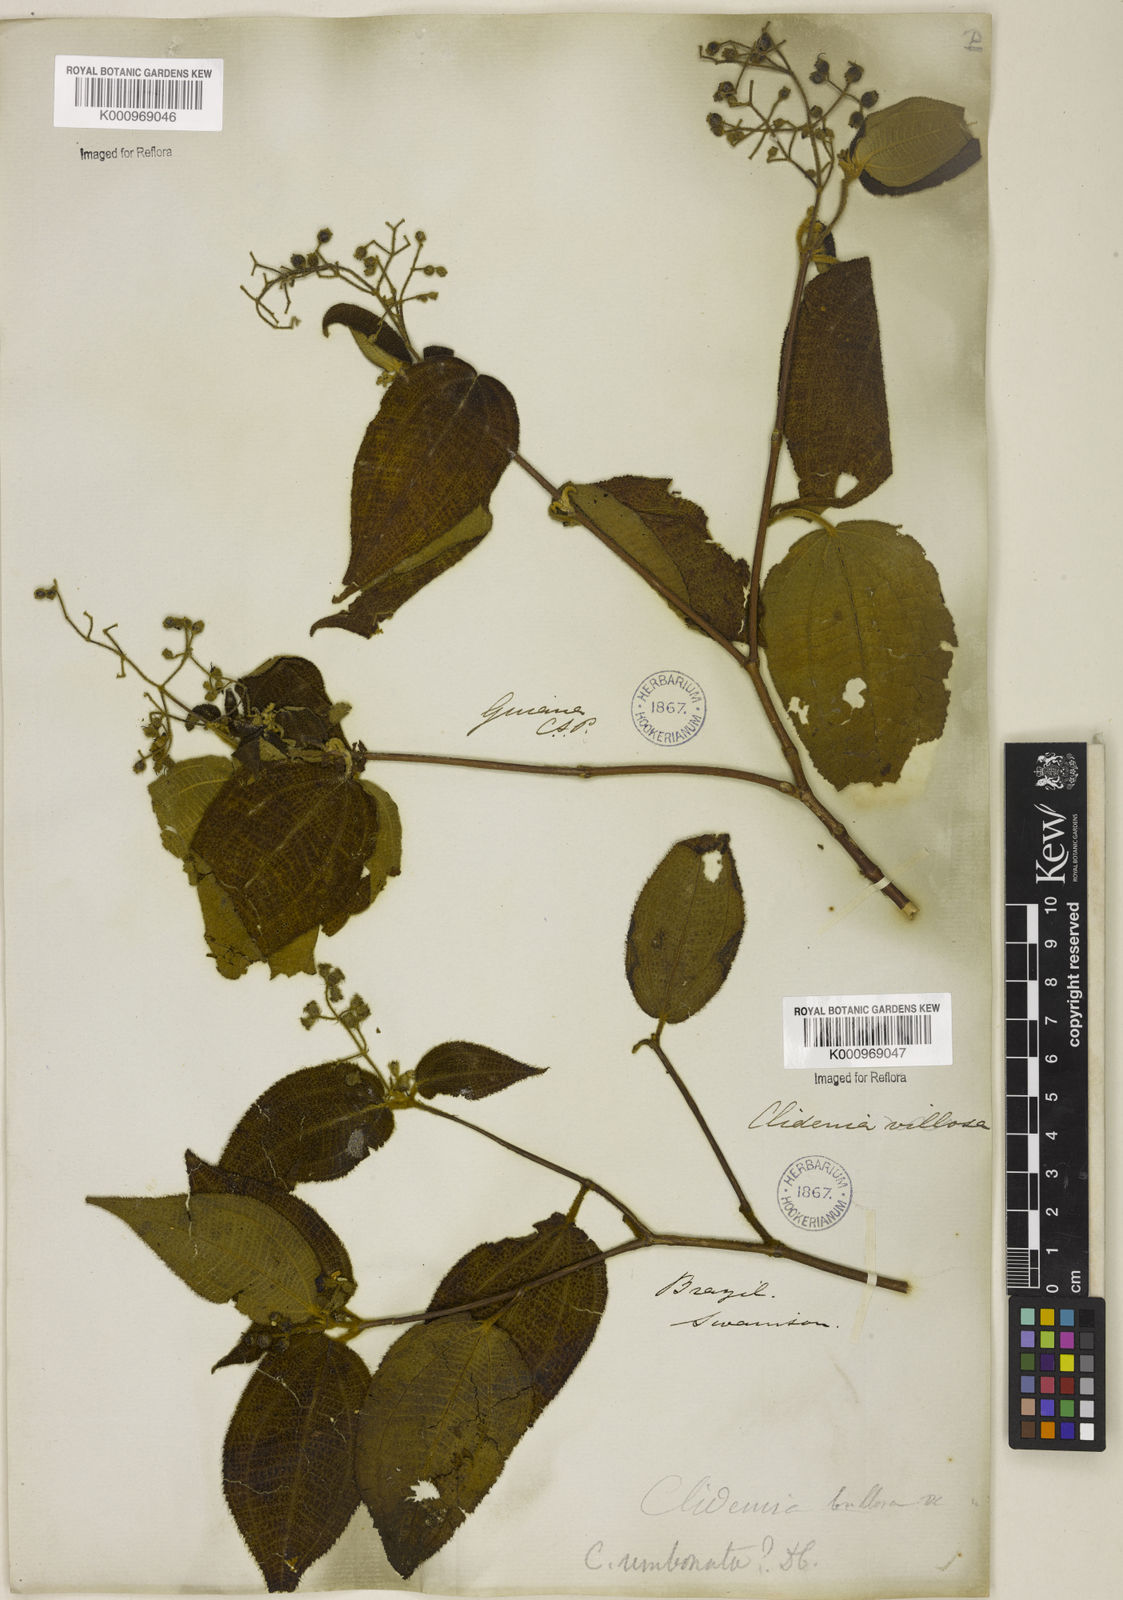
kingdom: Plantae
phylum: Tracheophyta
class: Magnoliopsida
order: Myrtales
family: Melastomataceae
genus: Miconia
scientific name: Miconia strigillosa
